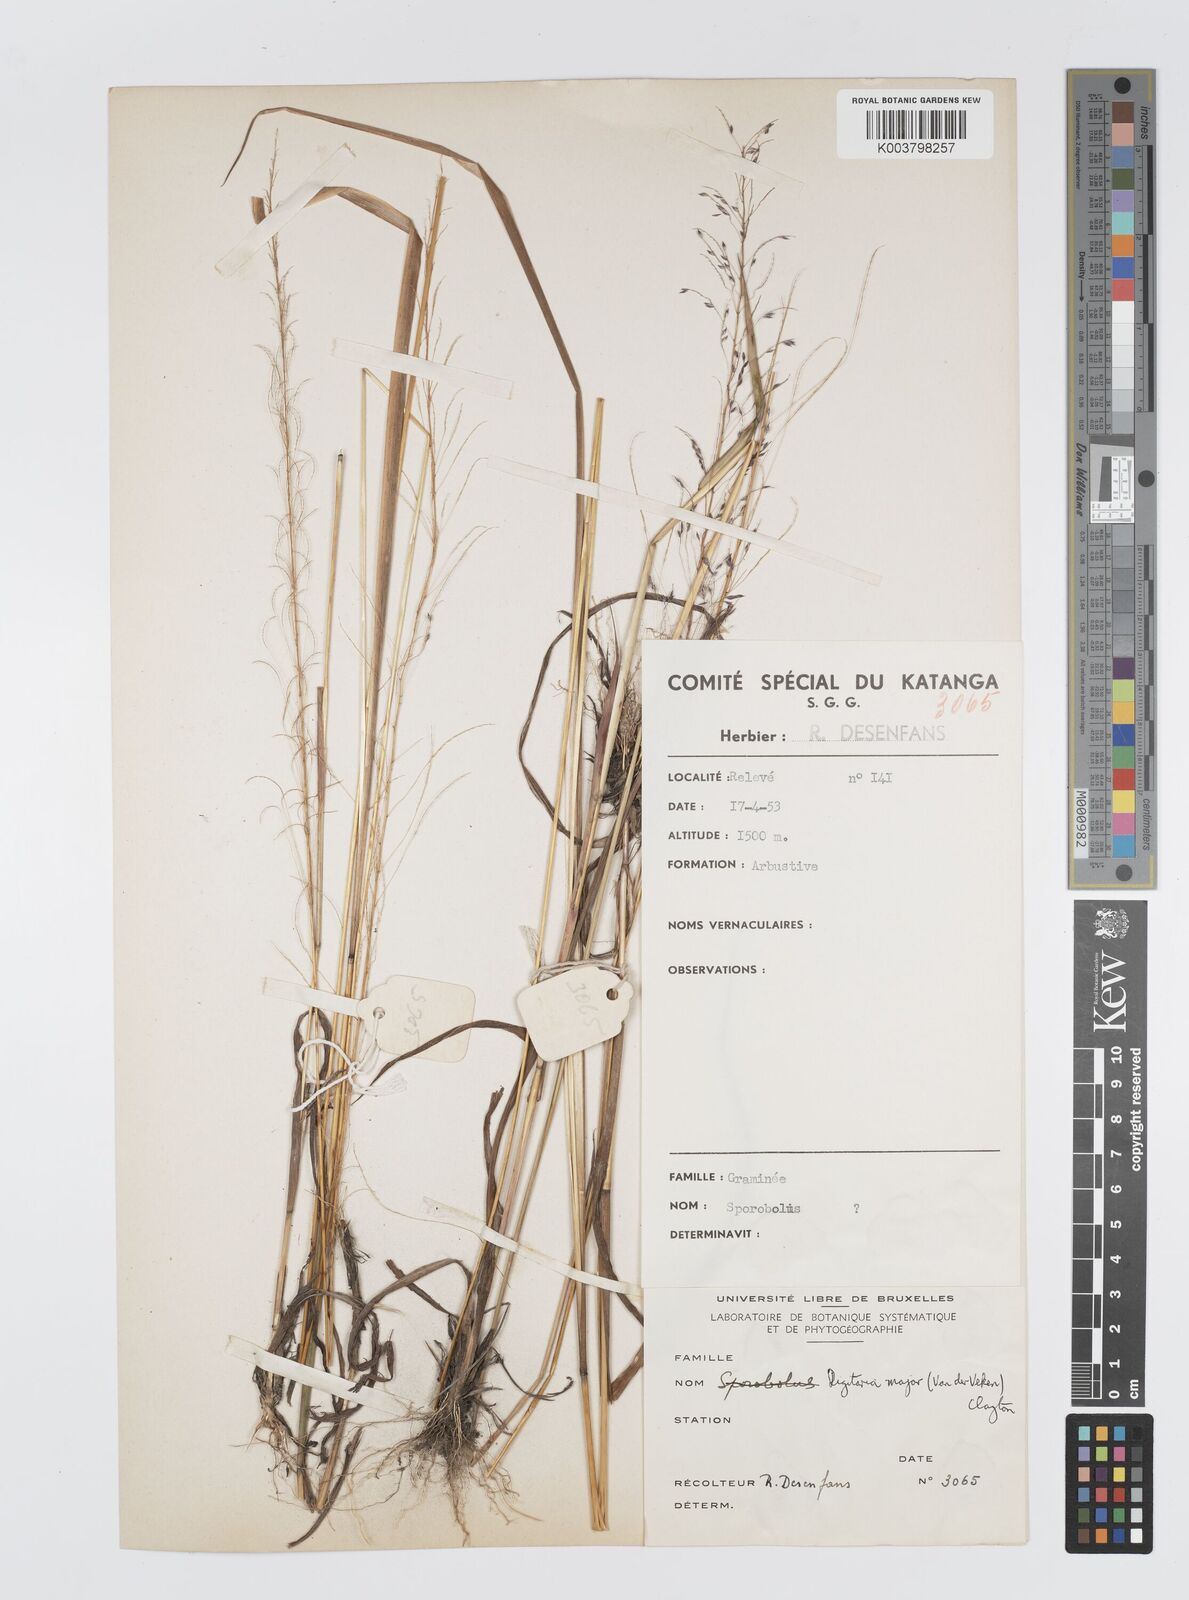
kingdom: Plantae
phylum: Tracheophyta
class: Liliopsida
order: Poales
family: Poaceae
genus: Digitaria
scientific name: Digitaria poggeana
